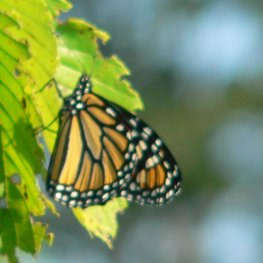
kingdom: Animalia
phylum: Arthropoda
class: Insecta
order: Lepidoptera
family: Nymphalidae
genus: Danaus
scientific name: Danaus plexippus
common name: Monarch
